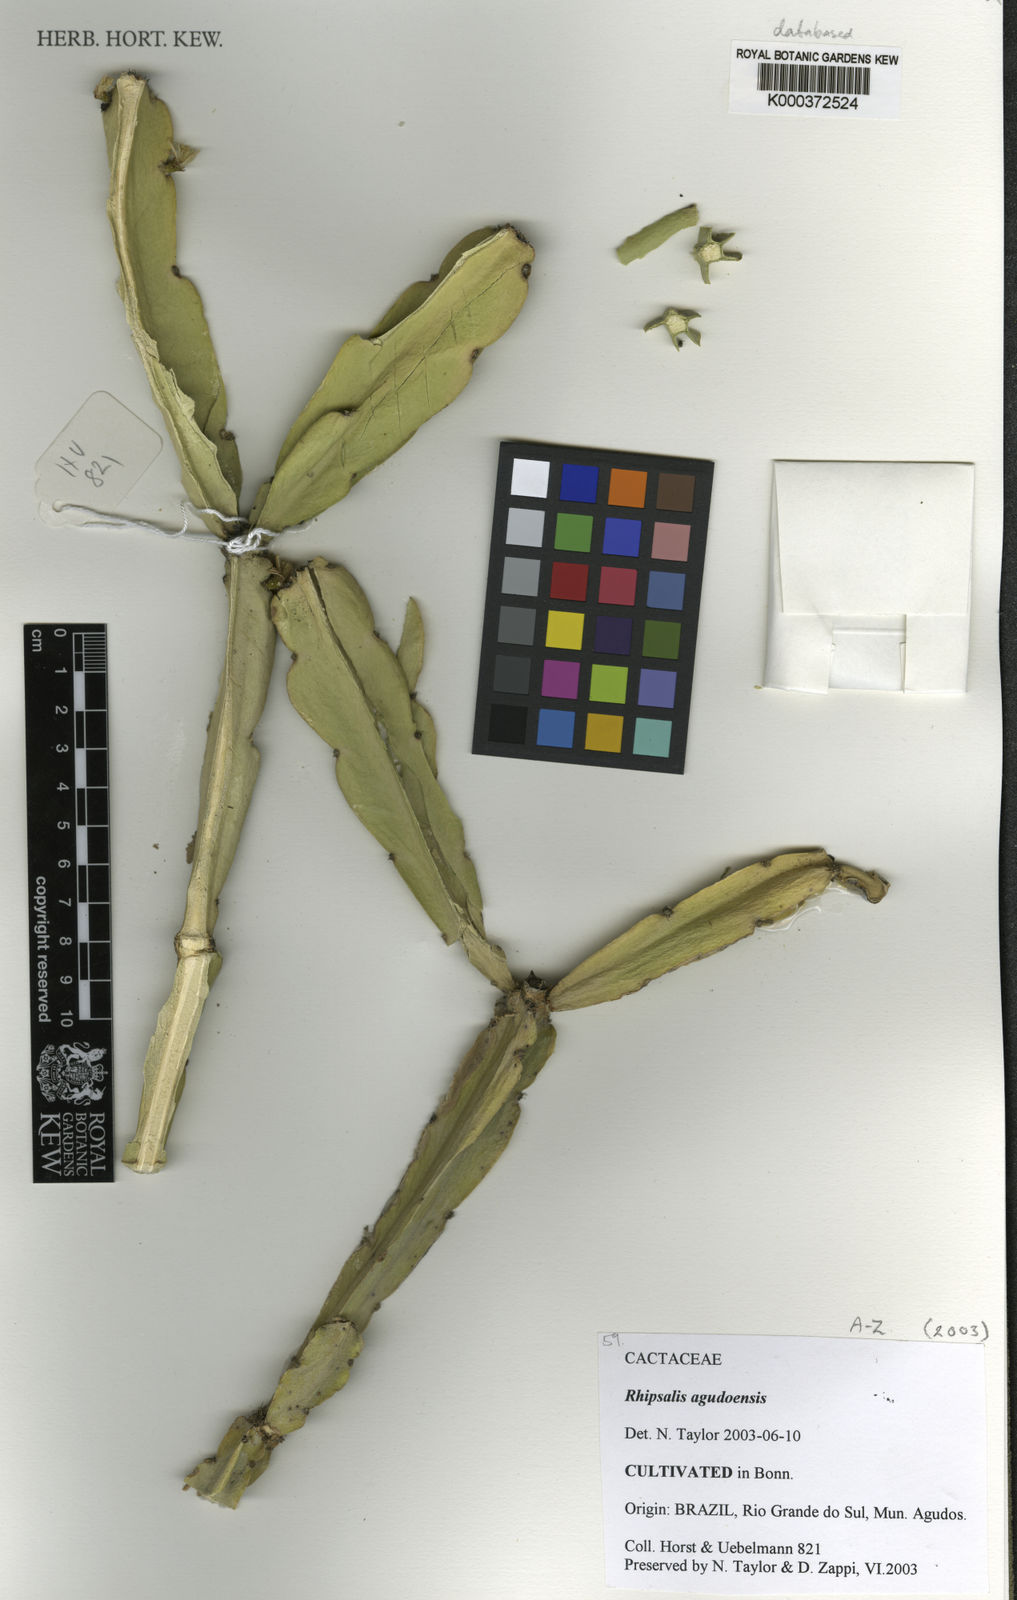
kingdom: Plantae
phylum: Tracheophyta
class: Magnoliopsida
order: Caryophyllales
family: Cactaceae
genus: Rhipsalis
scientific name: Rhipsalis agudoensis
